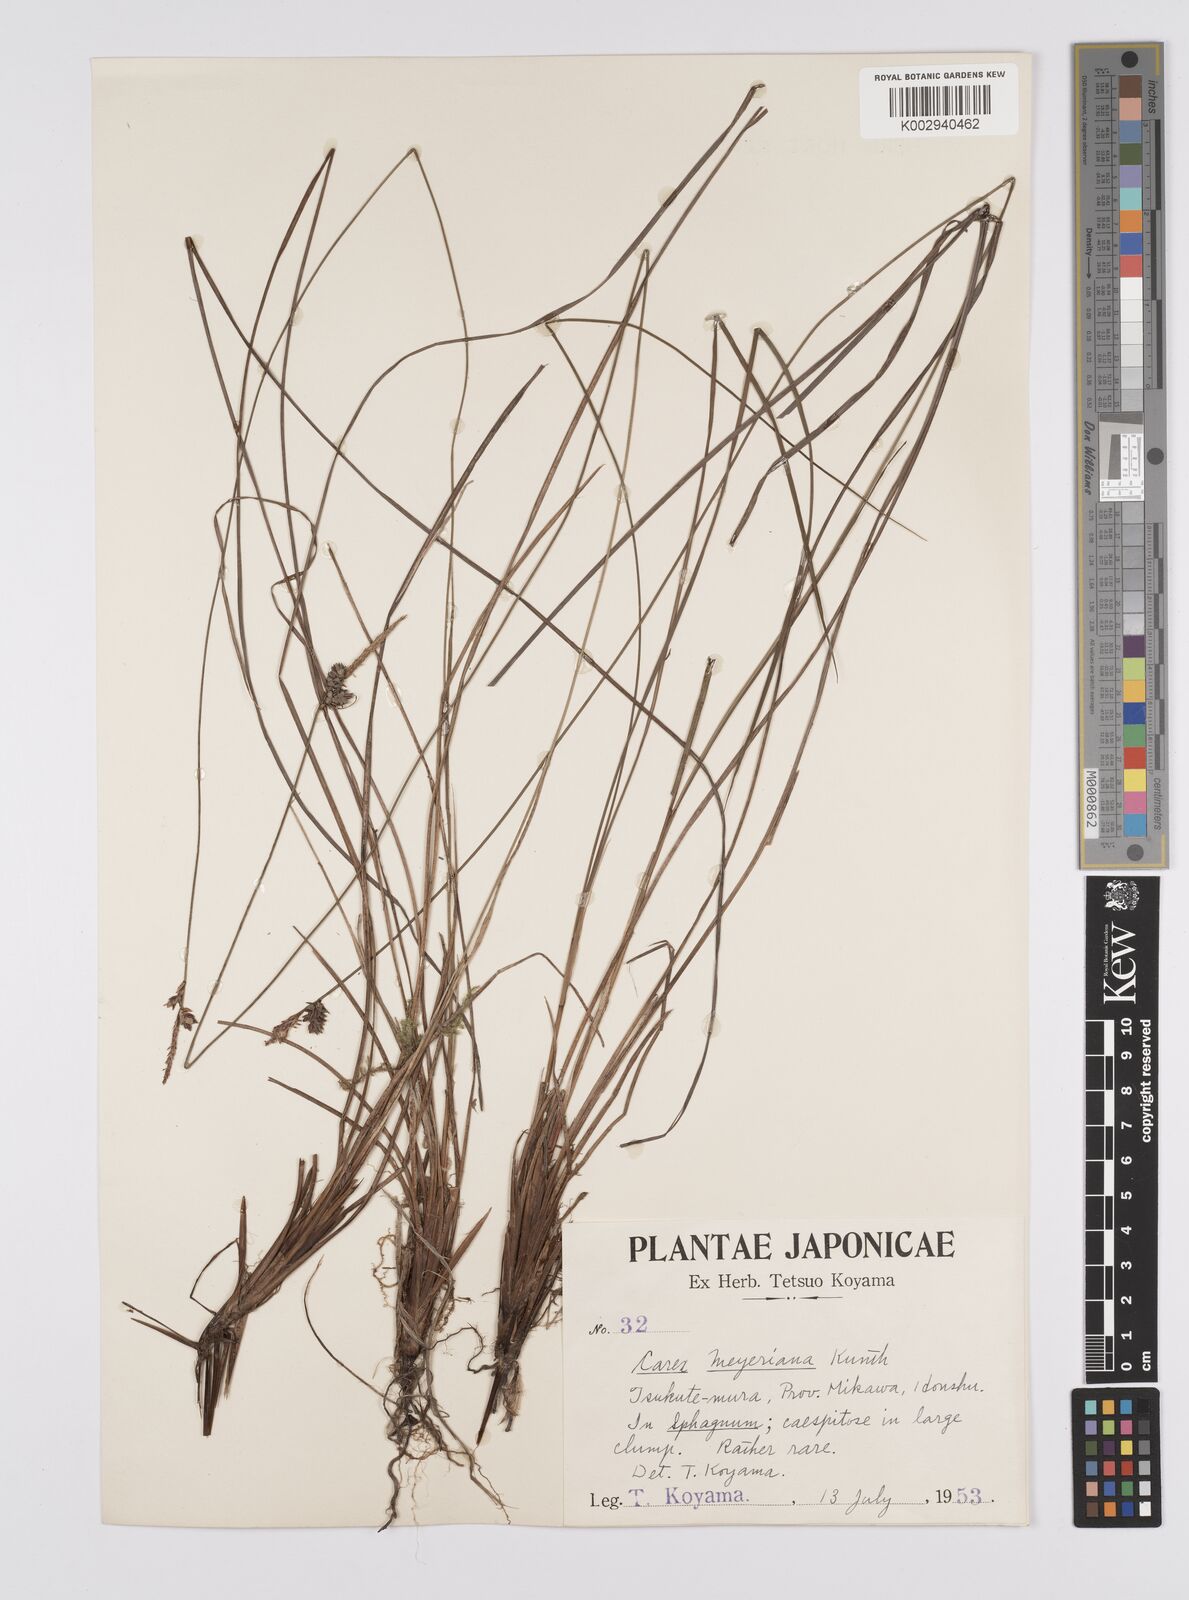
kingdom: Plantae
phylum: Tracheophyta
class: Liliopsida
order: Poales
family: Cyperaceae
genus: Carex
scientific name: Carex meyeriana
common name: Wula sedge
